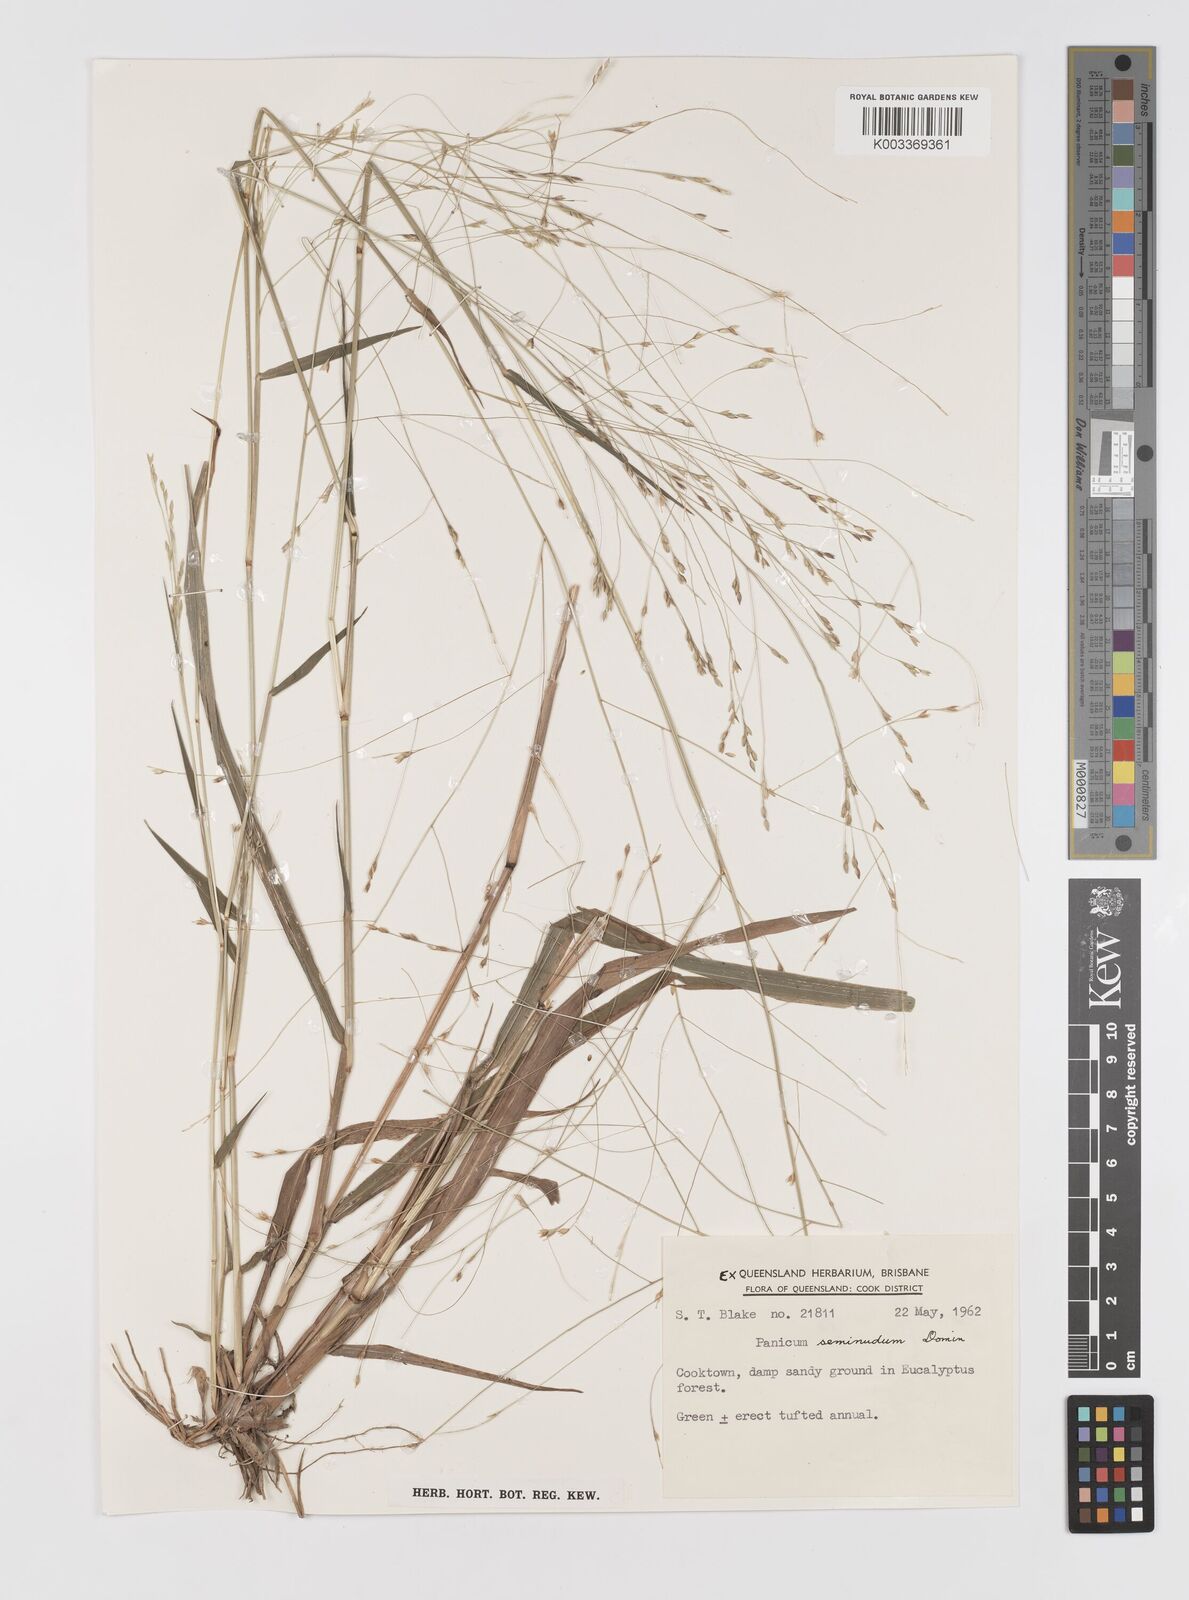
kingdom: Plantae
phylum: Tracheophyta
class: Liliopsida
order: Poales
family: Poaceae
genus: Panicum
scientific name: Panicum seminudum
